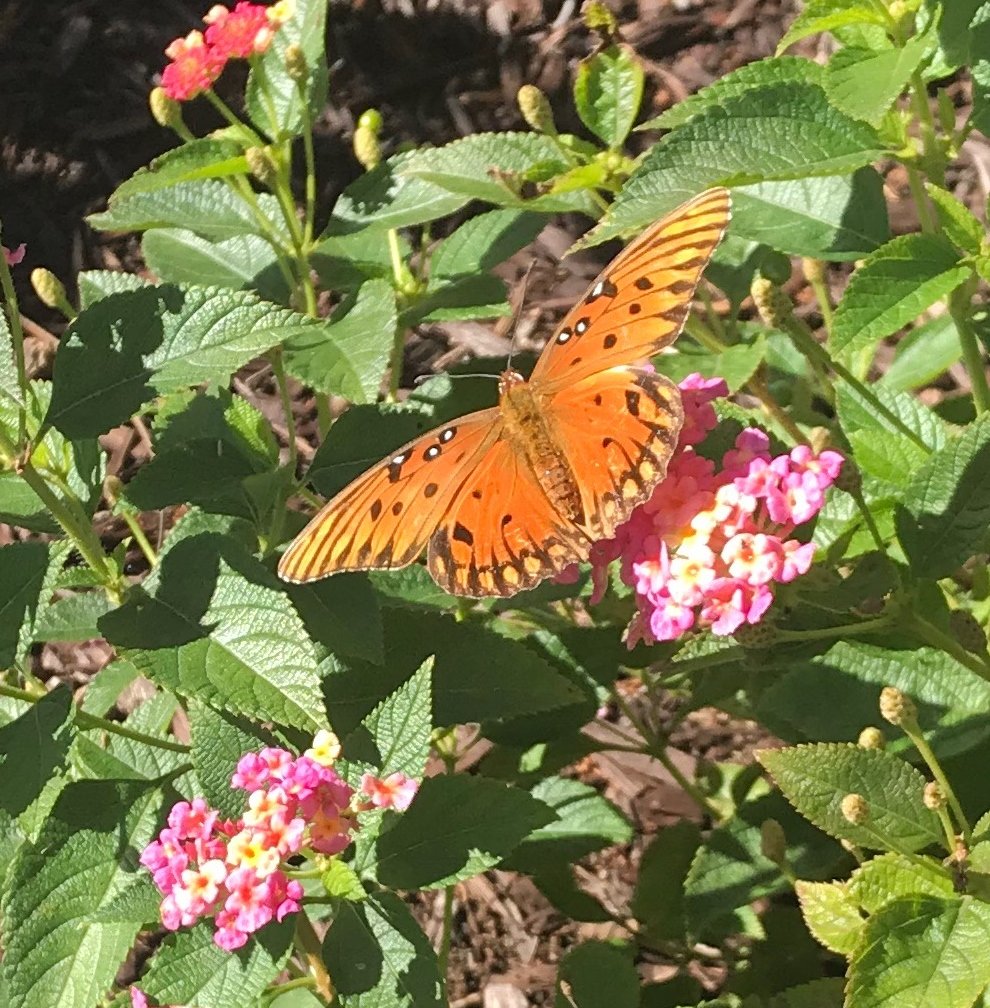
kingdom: Animalia
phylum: Arthropoda
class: Insecta
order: Lepidoptera
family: Nymphalidae
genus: Dione
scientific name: Dione vanillae
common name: Gulf Fritillary
